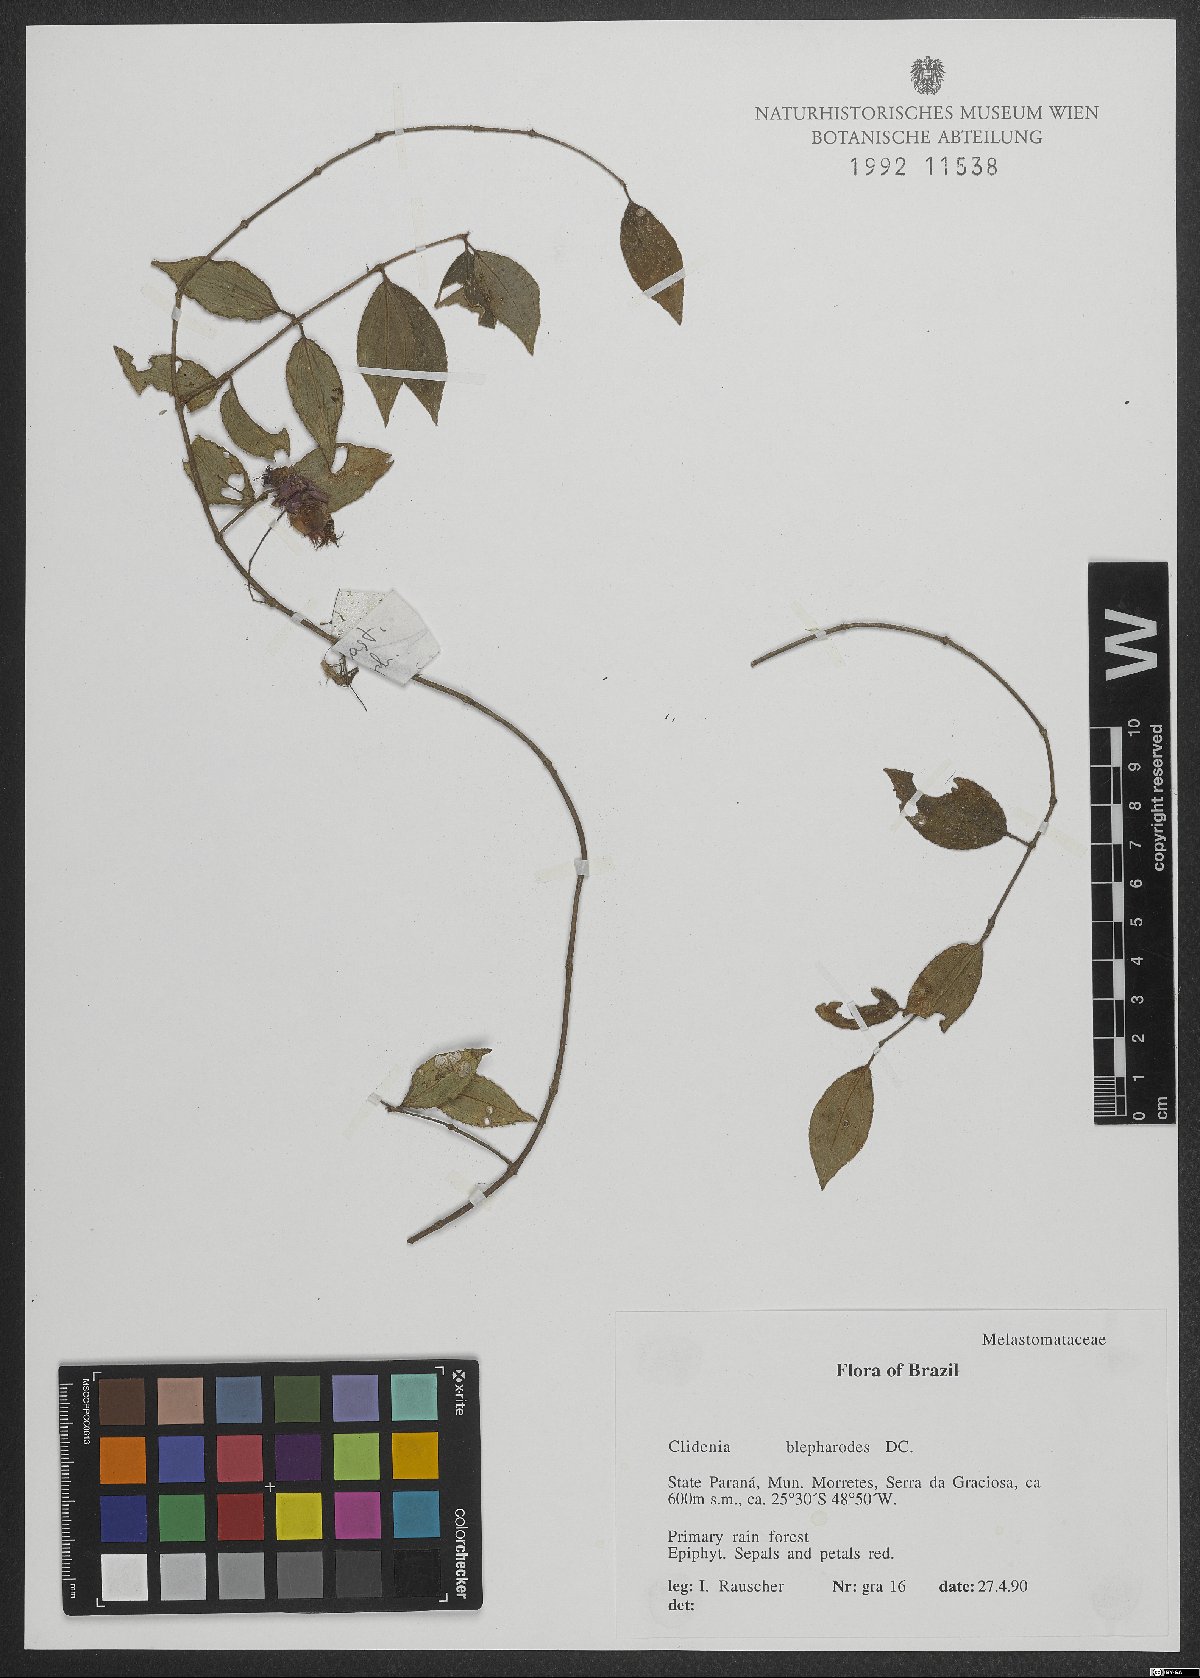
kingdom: Plantae
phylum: Tracheophyta
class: Magnoliopsida
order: Myrtales
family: Melastomataceae
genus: Miconia
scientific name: Miconia blepharodes
